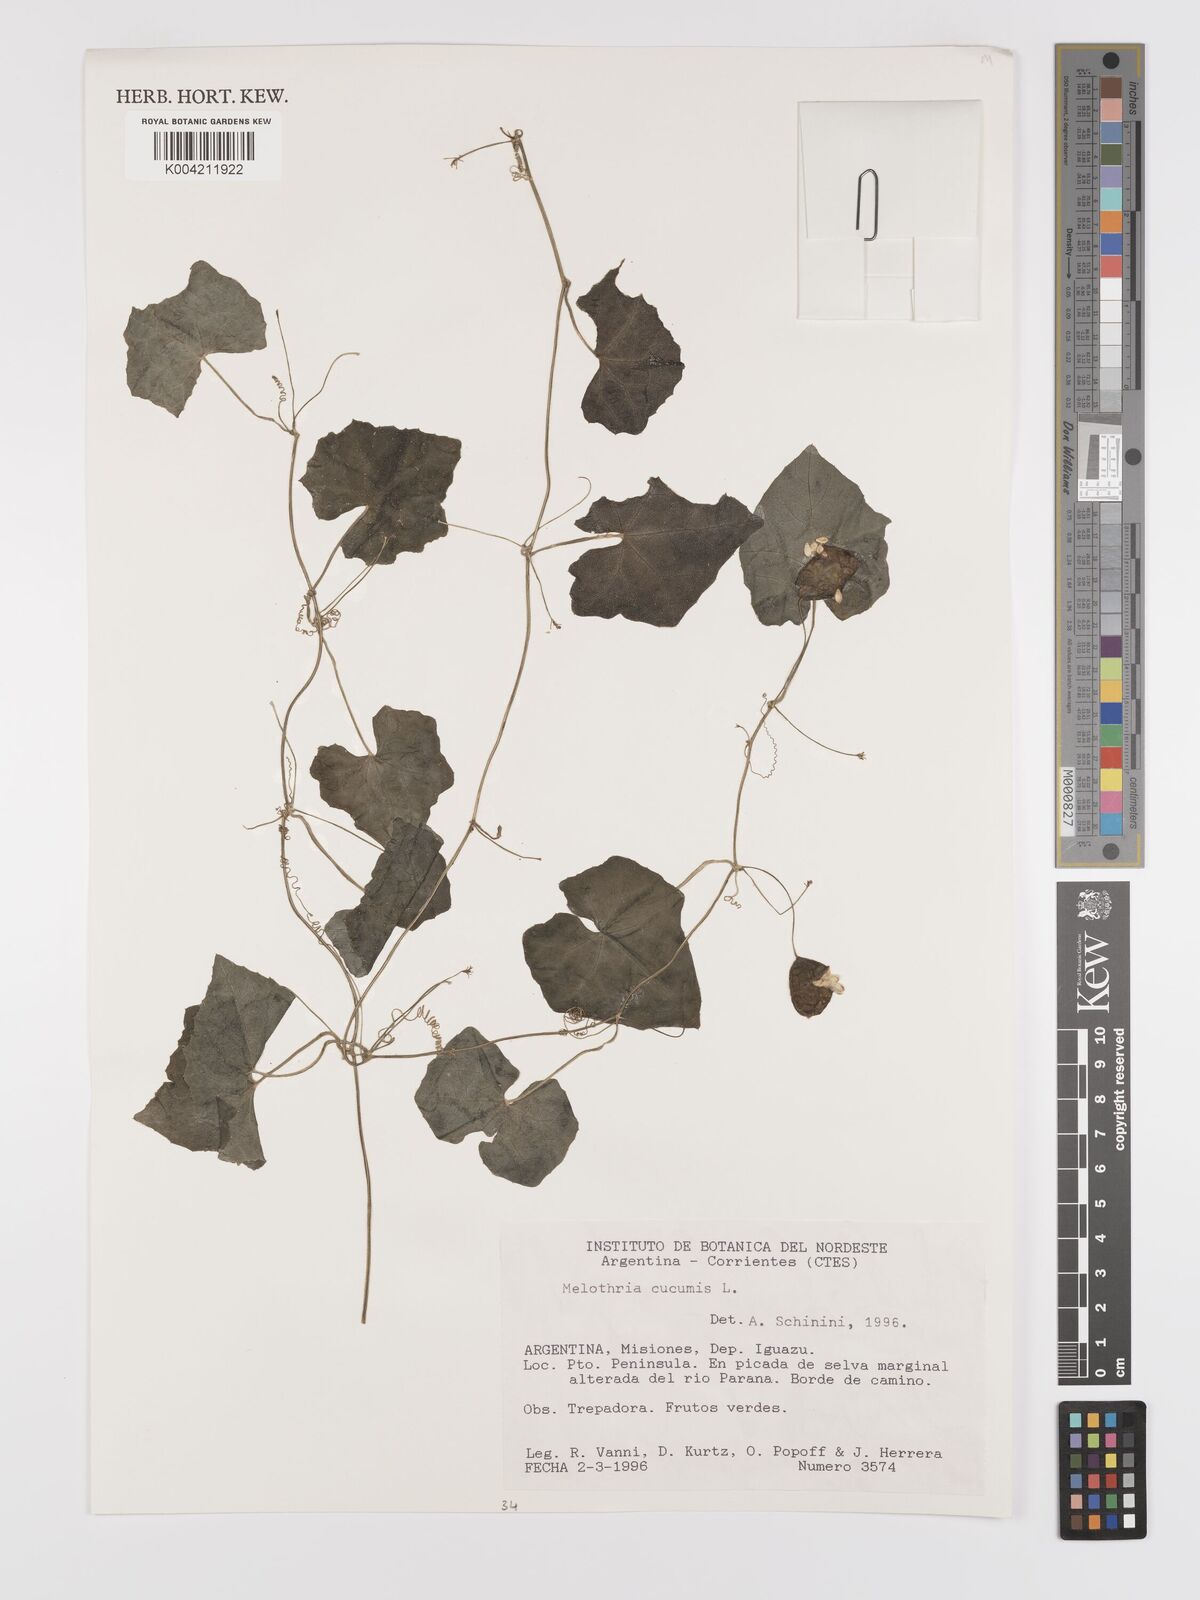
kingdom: Plantae
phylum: Tracheophyta
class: Magnoliopsida
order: Cucurbitales
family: Cucurbitaceae
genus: Melothria
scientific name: Melothria cucumis
